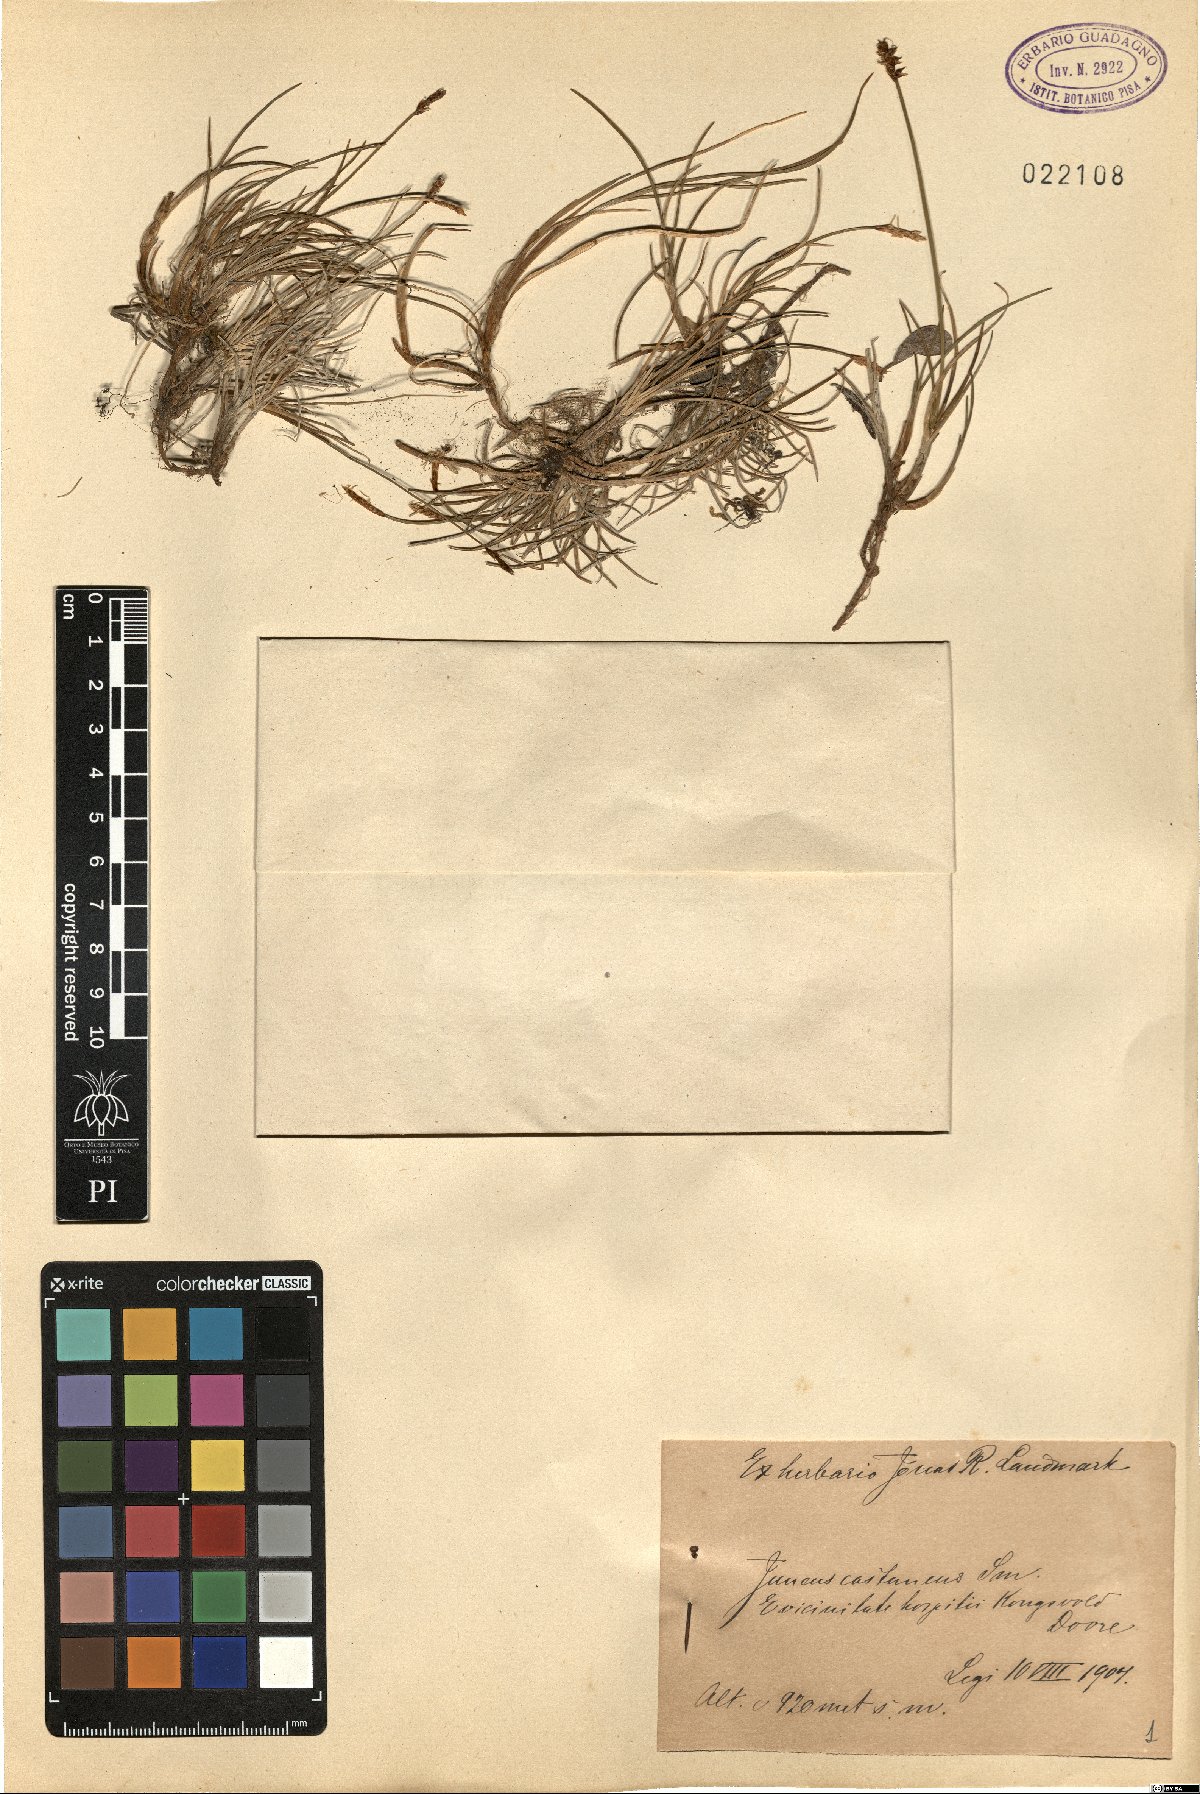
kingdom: Plantae
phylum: Tracheophyta
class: Liliopsida
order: Poales
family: Juncaceae
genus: Juncus
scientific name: Juncus castaneus
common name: Chestnut rush
